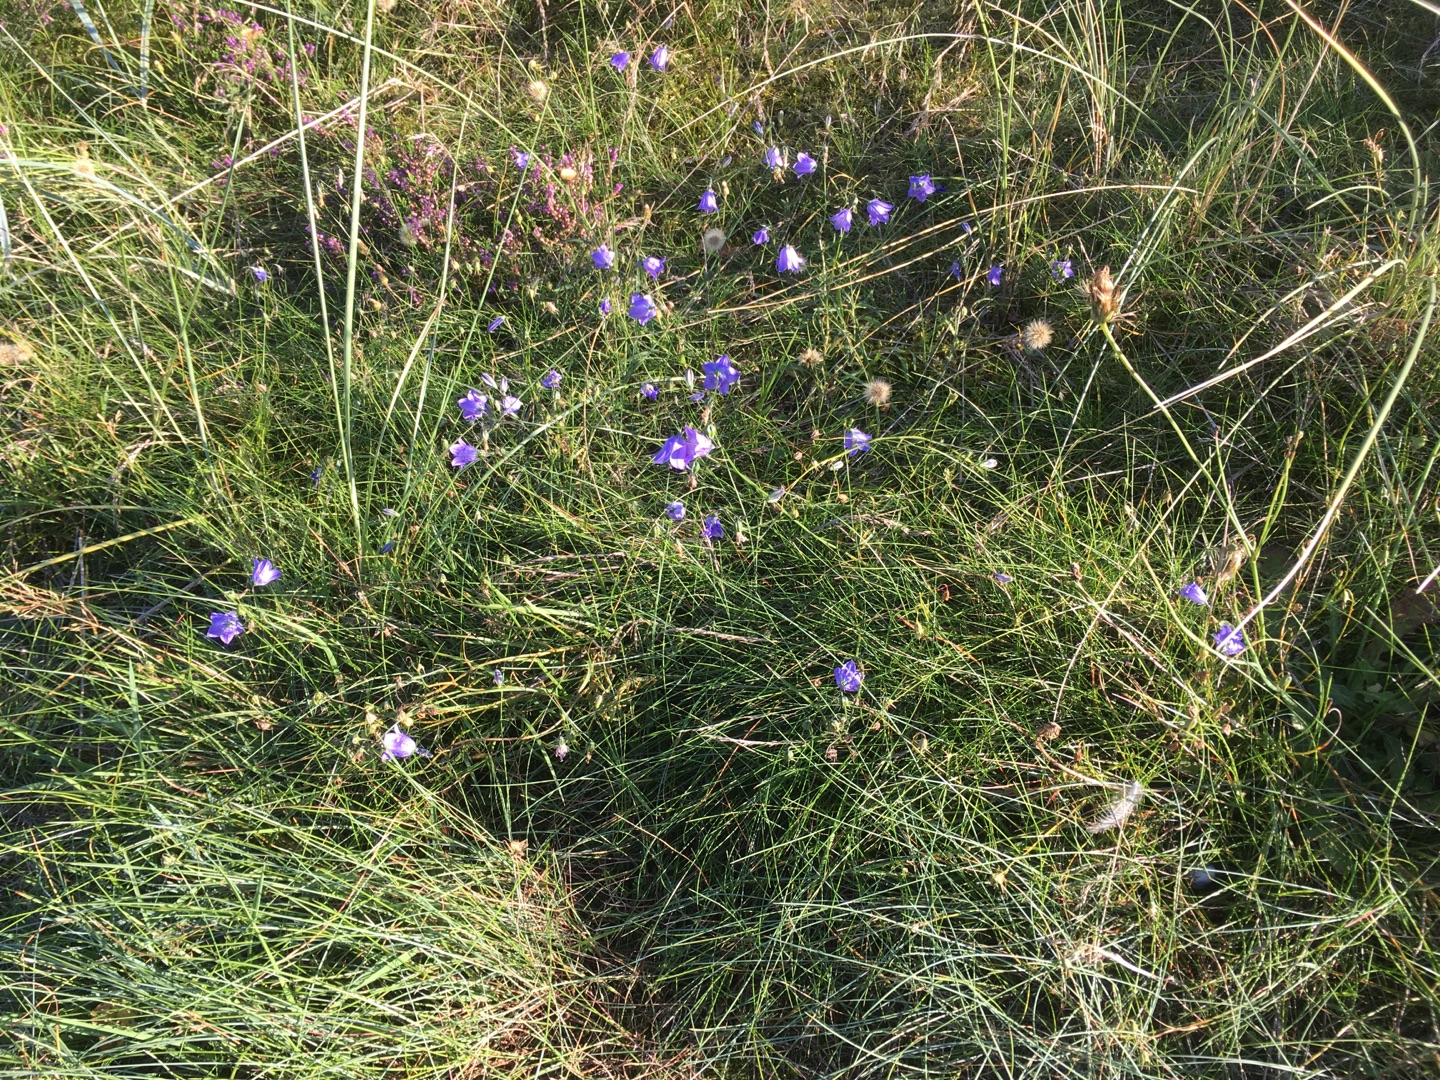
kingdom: Plantae
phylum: Tracheophyta
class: Magnoliopsida
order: Asterales
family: Campanulaceae
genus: Campanula
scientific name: Campanula rotundifolia
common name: Liden klokke
